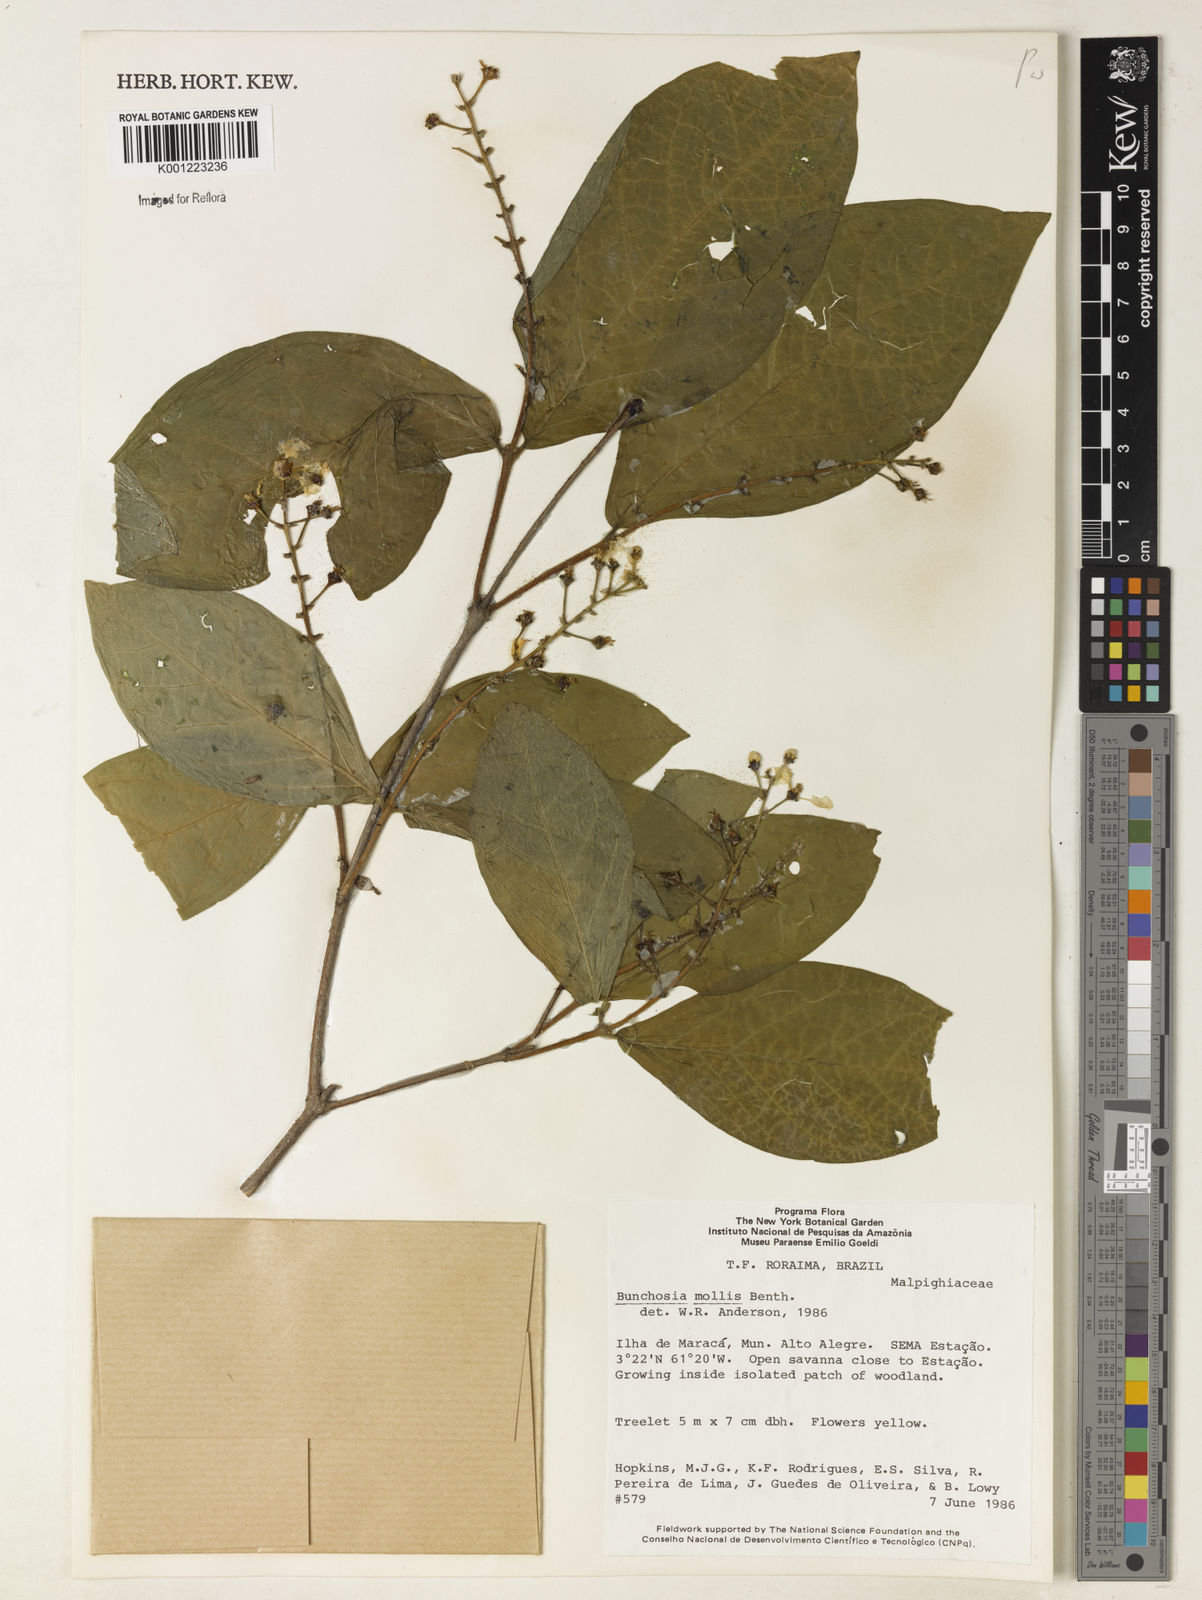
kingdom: Plantae
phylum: Tracheophyta
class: Magnoliopsida
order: Malpighiales
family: Malpighiaceae
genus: Bunchosia
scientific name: Bunchosia mollis
